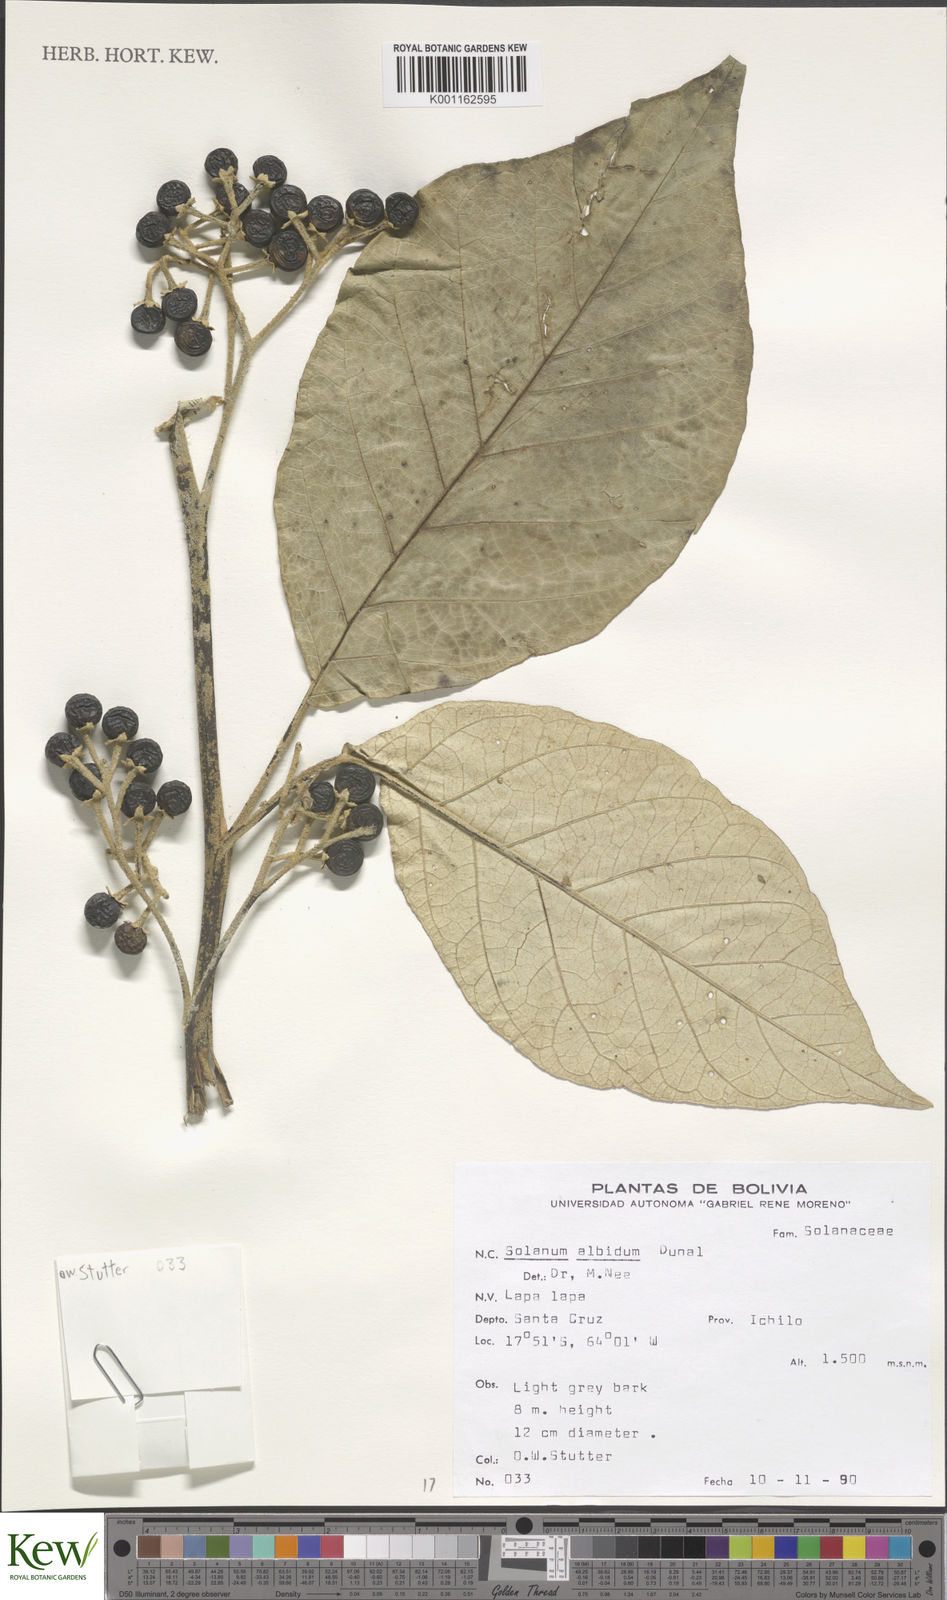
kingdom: Plantae
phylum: Tracheophyta
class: Magnoliopsida
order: Solanales
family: Solanaceae
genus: Solanum
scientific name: Solanum albidum
